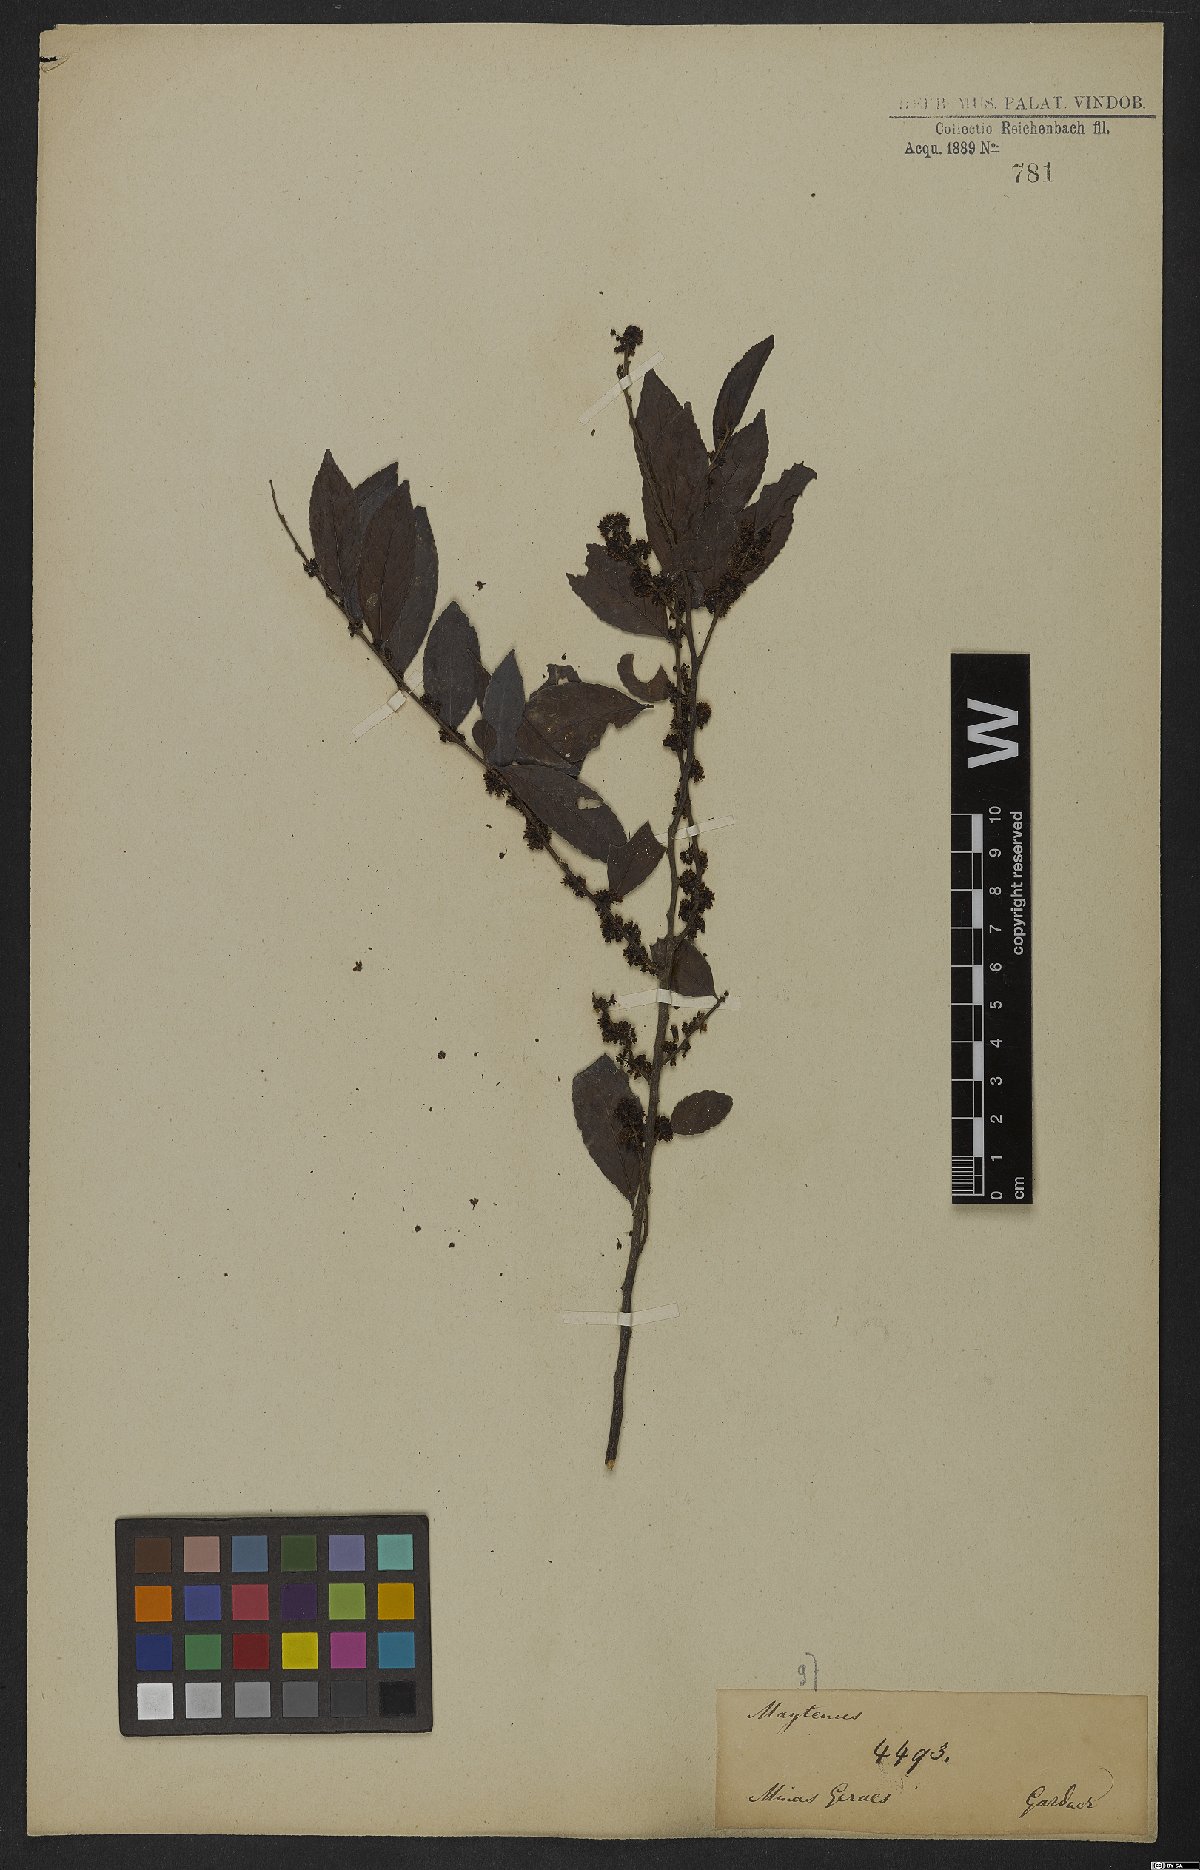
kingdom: Plantae
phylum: Tracheophyta
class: Magnoliopsida
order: Celastrales
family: Celastraceae
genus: Maytenus
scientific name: Maytenus
